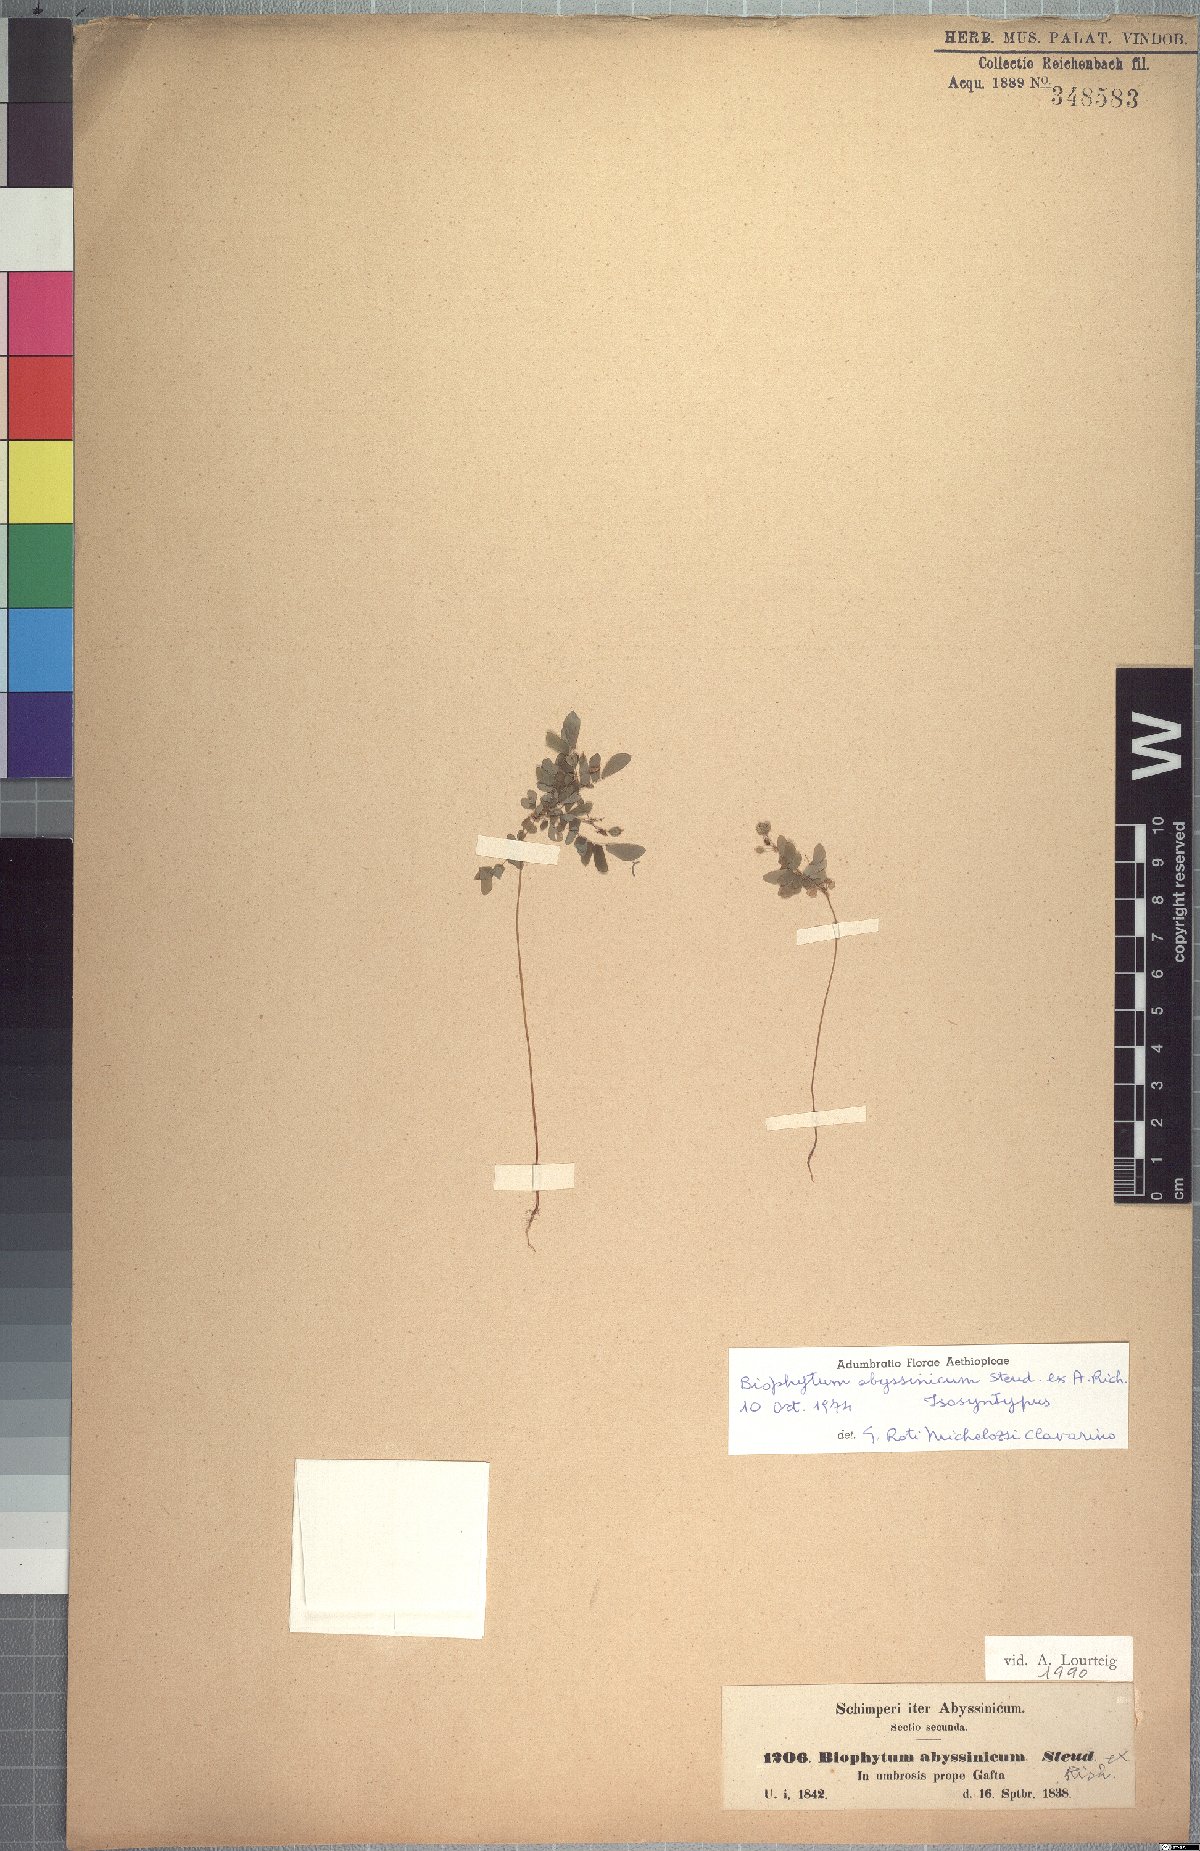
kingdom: Plantae
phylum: Tracheophyta
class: Magnoliopsida
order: Oxalidales
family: Oxalidaceae
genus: Biophytum
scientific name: Biophytum abyssinicum
